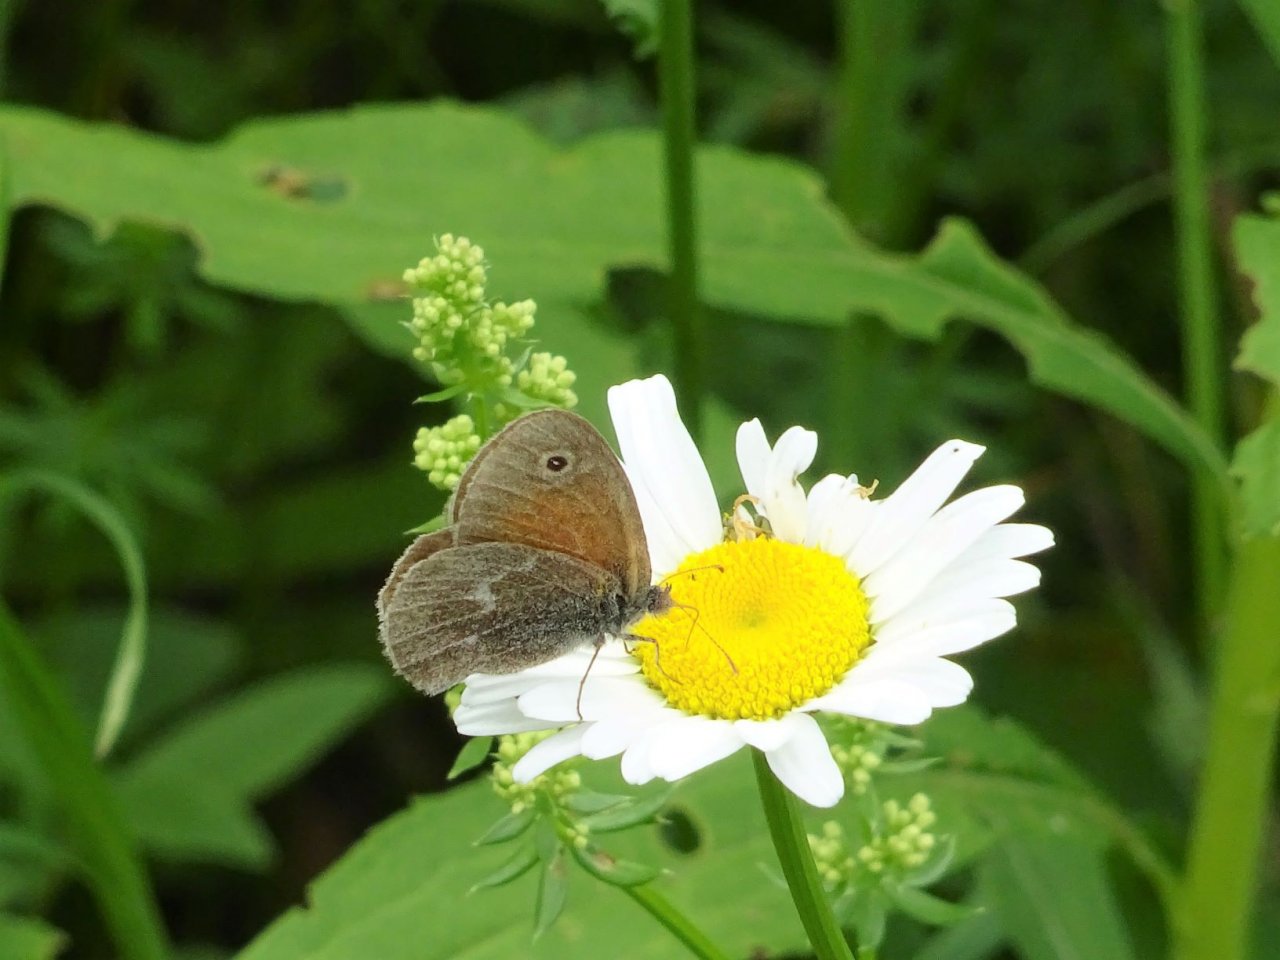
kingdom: Animalia
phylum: Arthropoda
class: Insecta
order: Lepidoptera
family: Nymphalidae
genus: Coenonympha
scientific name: Coenonympha tullia
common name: Large Heath
